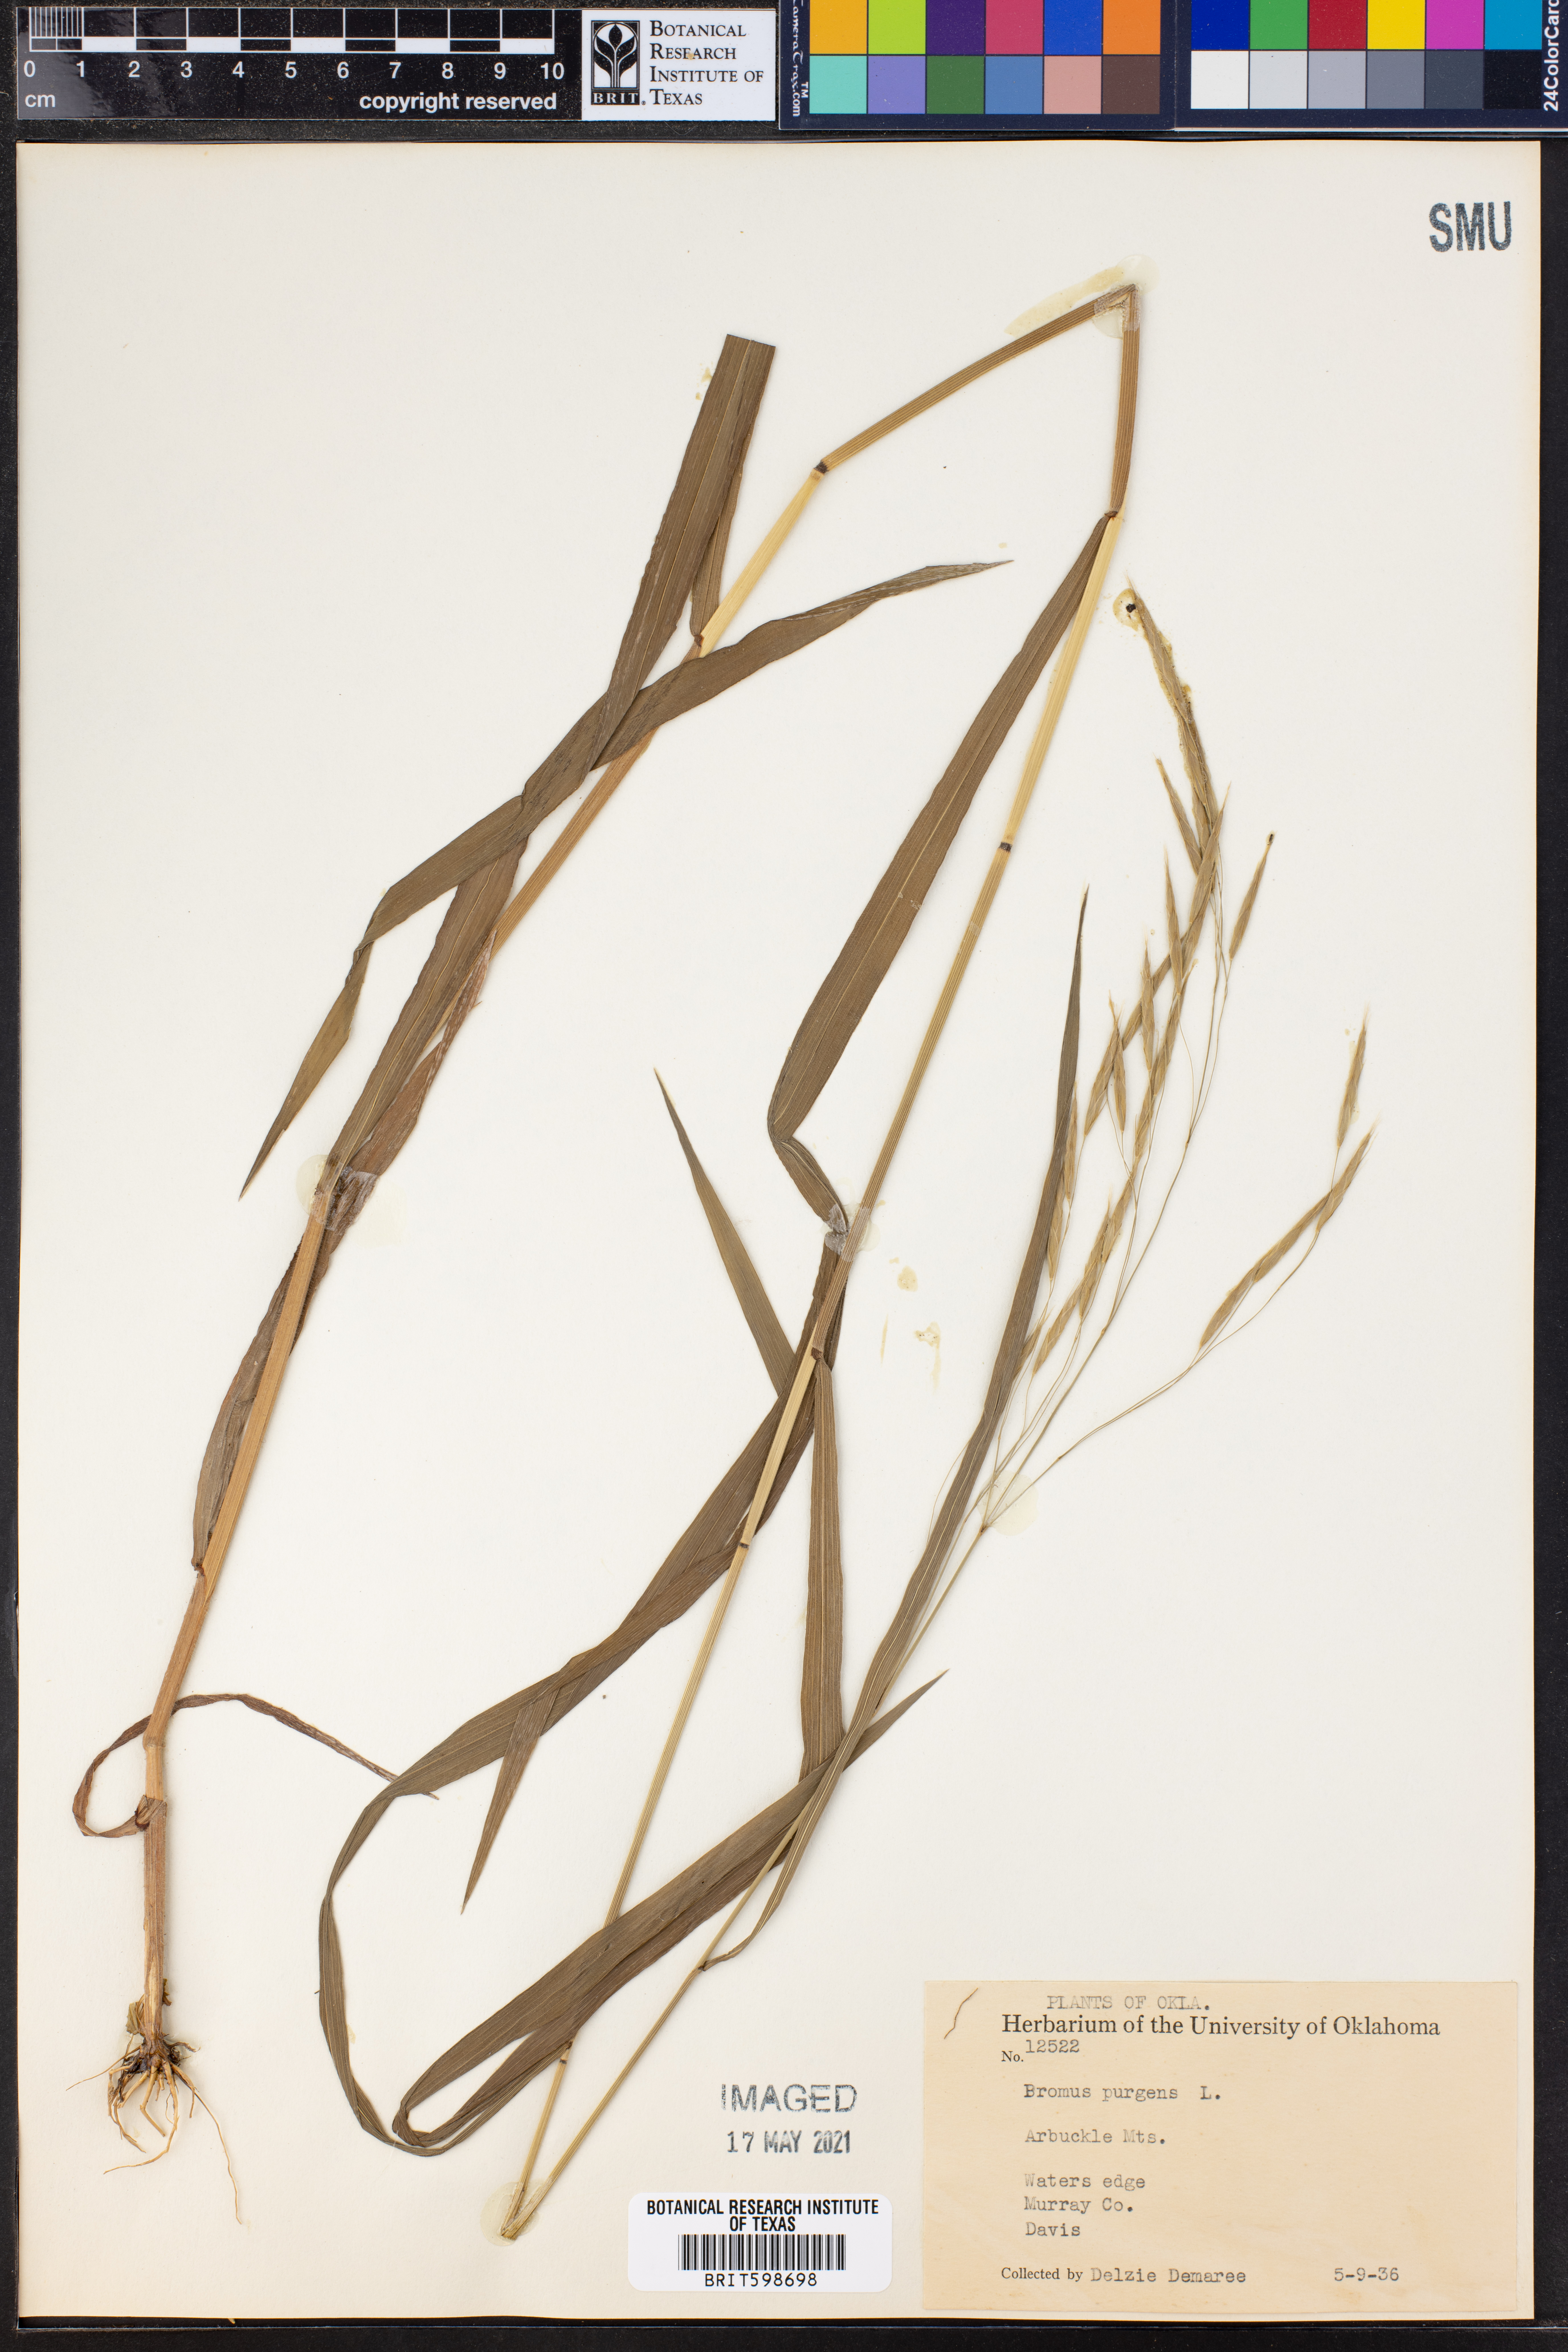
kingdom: Plantae
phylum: Tracheophyta
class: Liliopsida
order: Poales
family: Poaceae
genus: Triticum
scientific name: Triticum Bromus purgans
